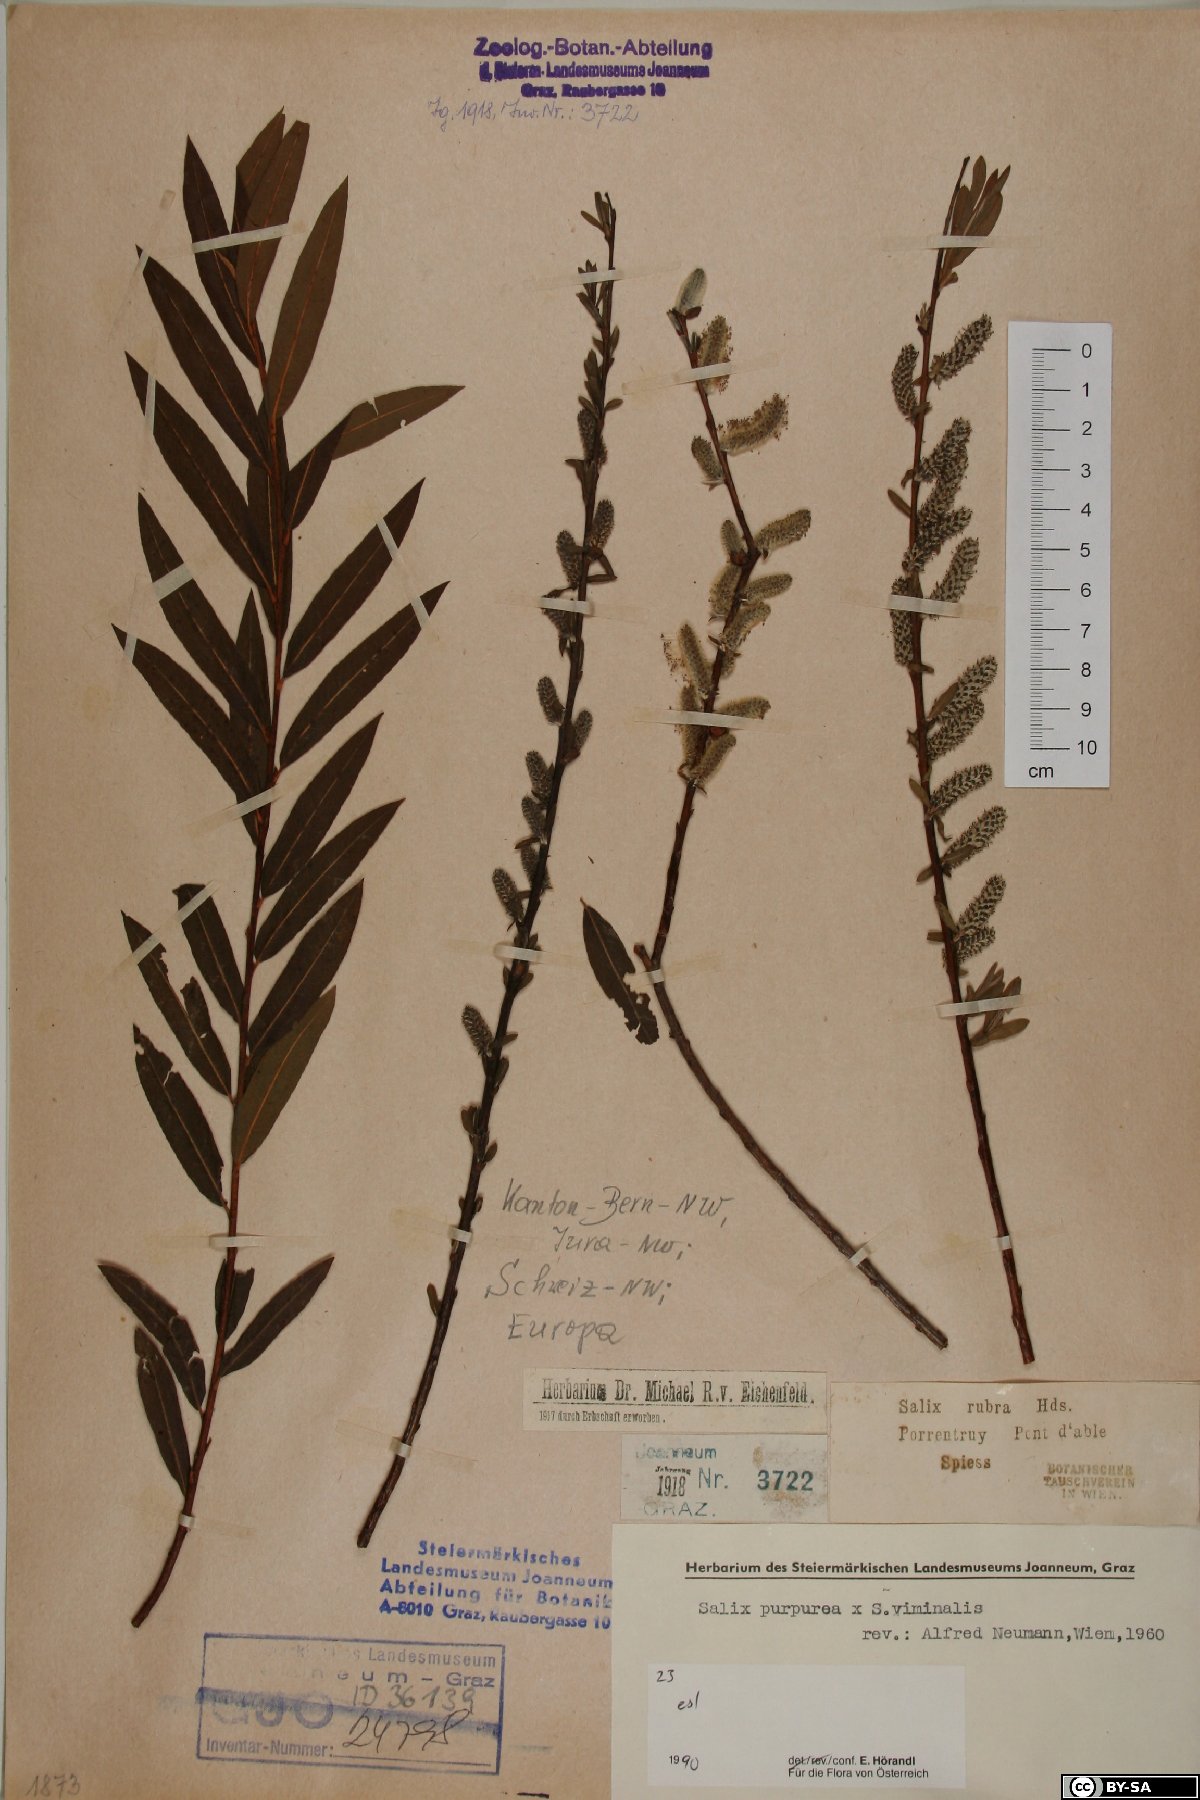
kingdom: Plantae
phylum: Tracheophyta
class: Magnoliopsida
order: Malpighiales
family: Salicaceae
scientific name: Salicaceae
